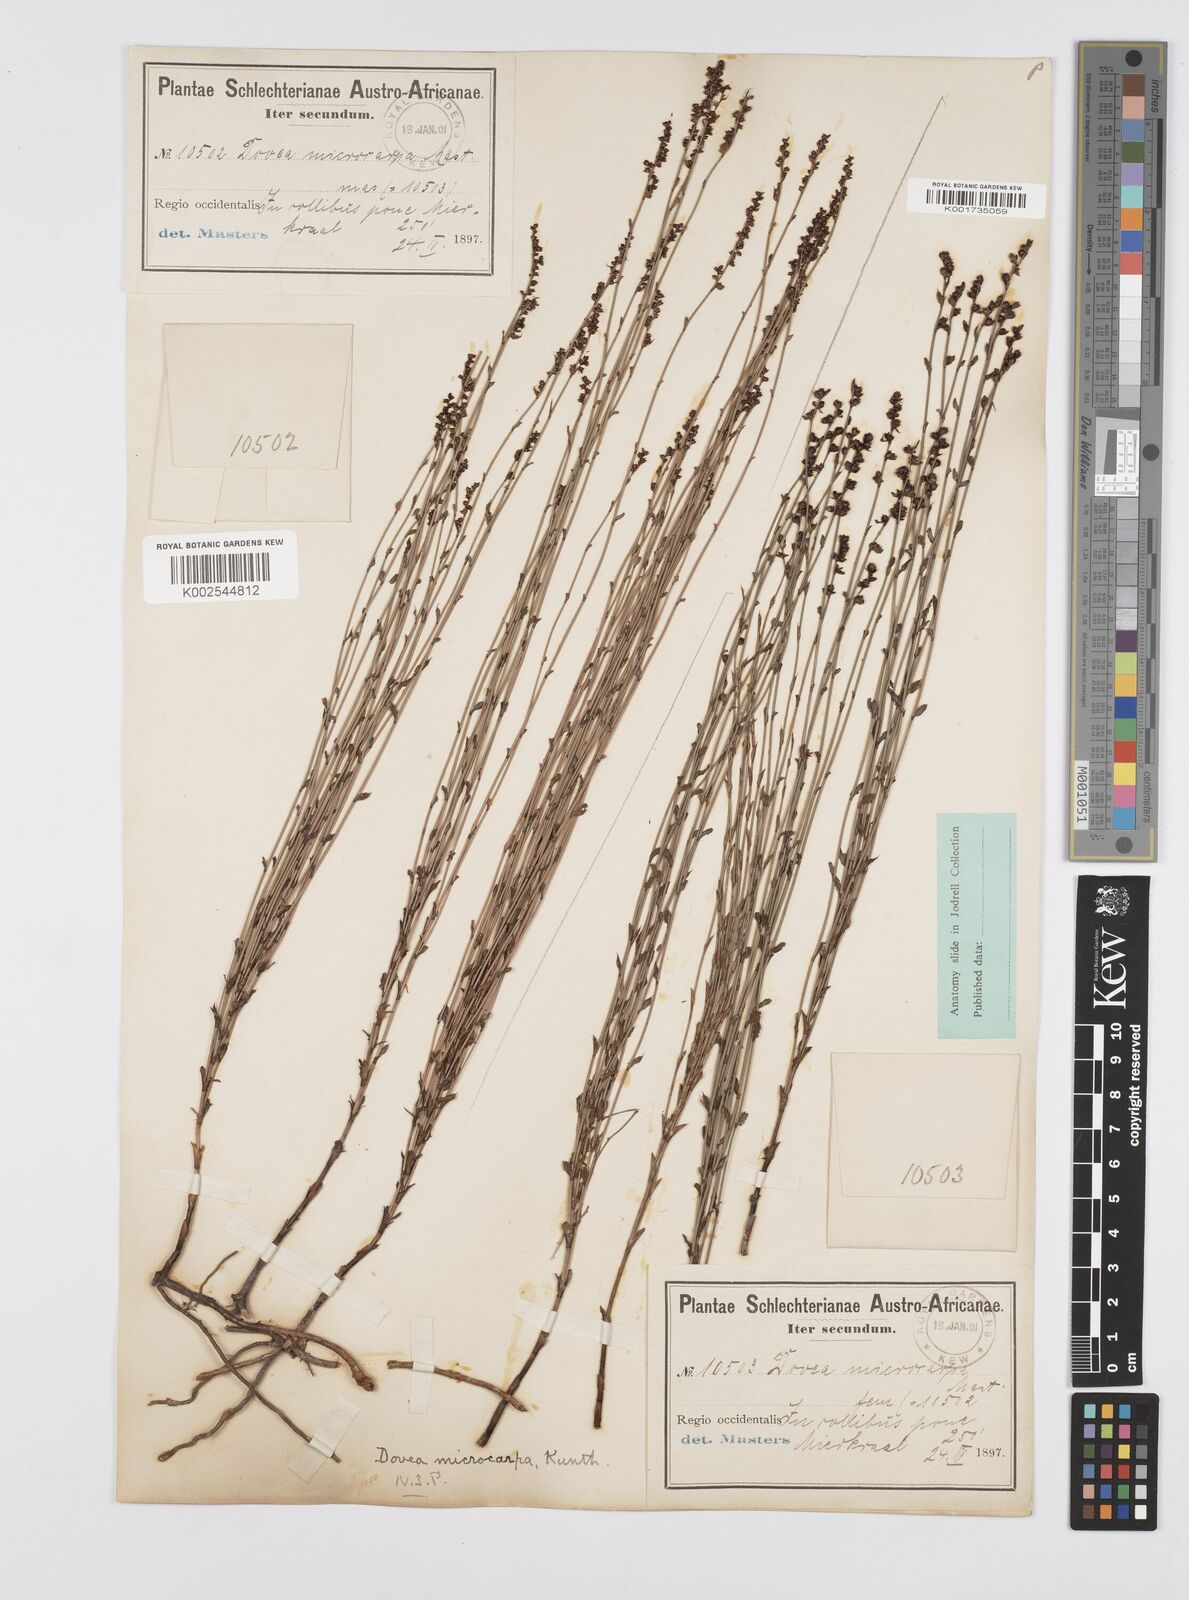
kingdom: Plantae
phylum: Tracheophyta
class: Liliopsida
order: Poales
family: Restionaceae
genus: Elegia
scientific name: Elegia microcarpa
